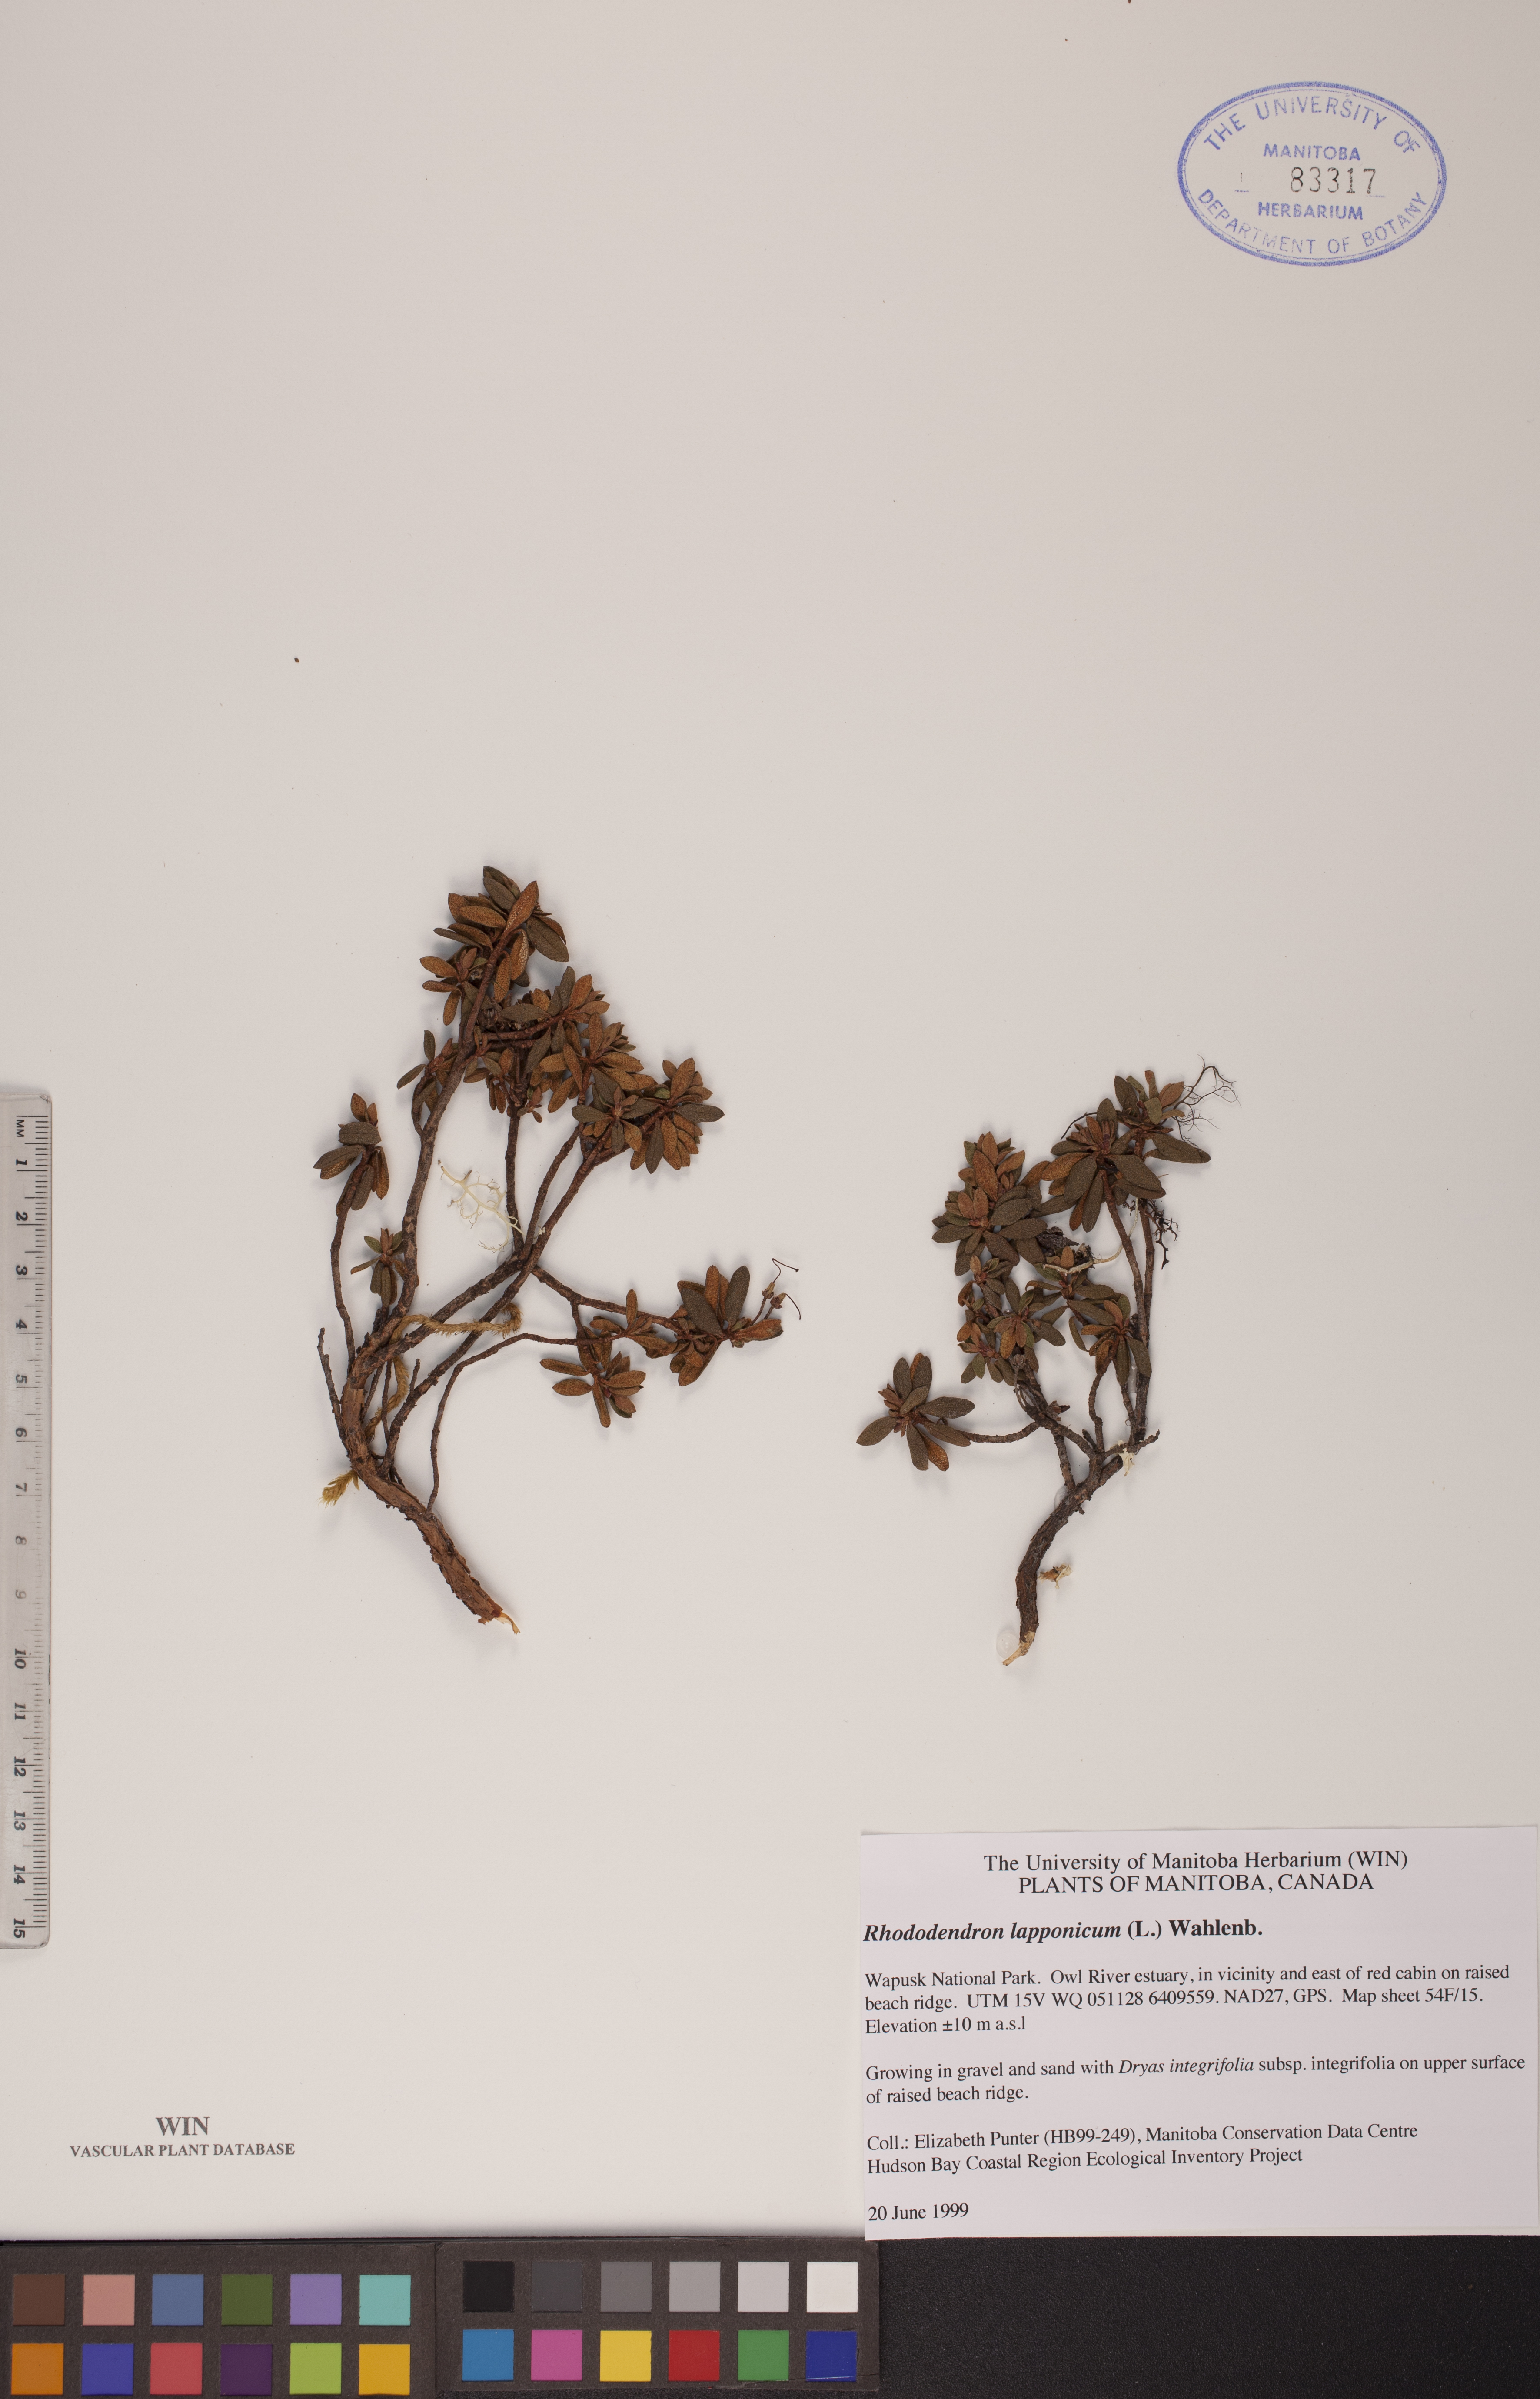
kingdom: Plantae
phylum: Tracheophyta
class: Magnoliopsida
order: Ericales
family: Ericaceae
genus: Rhododendron
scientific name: Rhododendron lapponicum
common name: Lapland rhododendron
